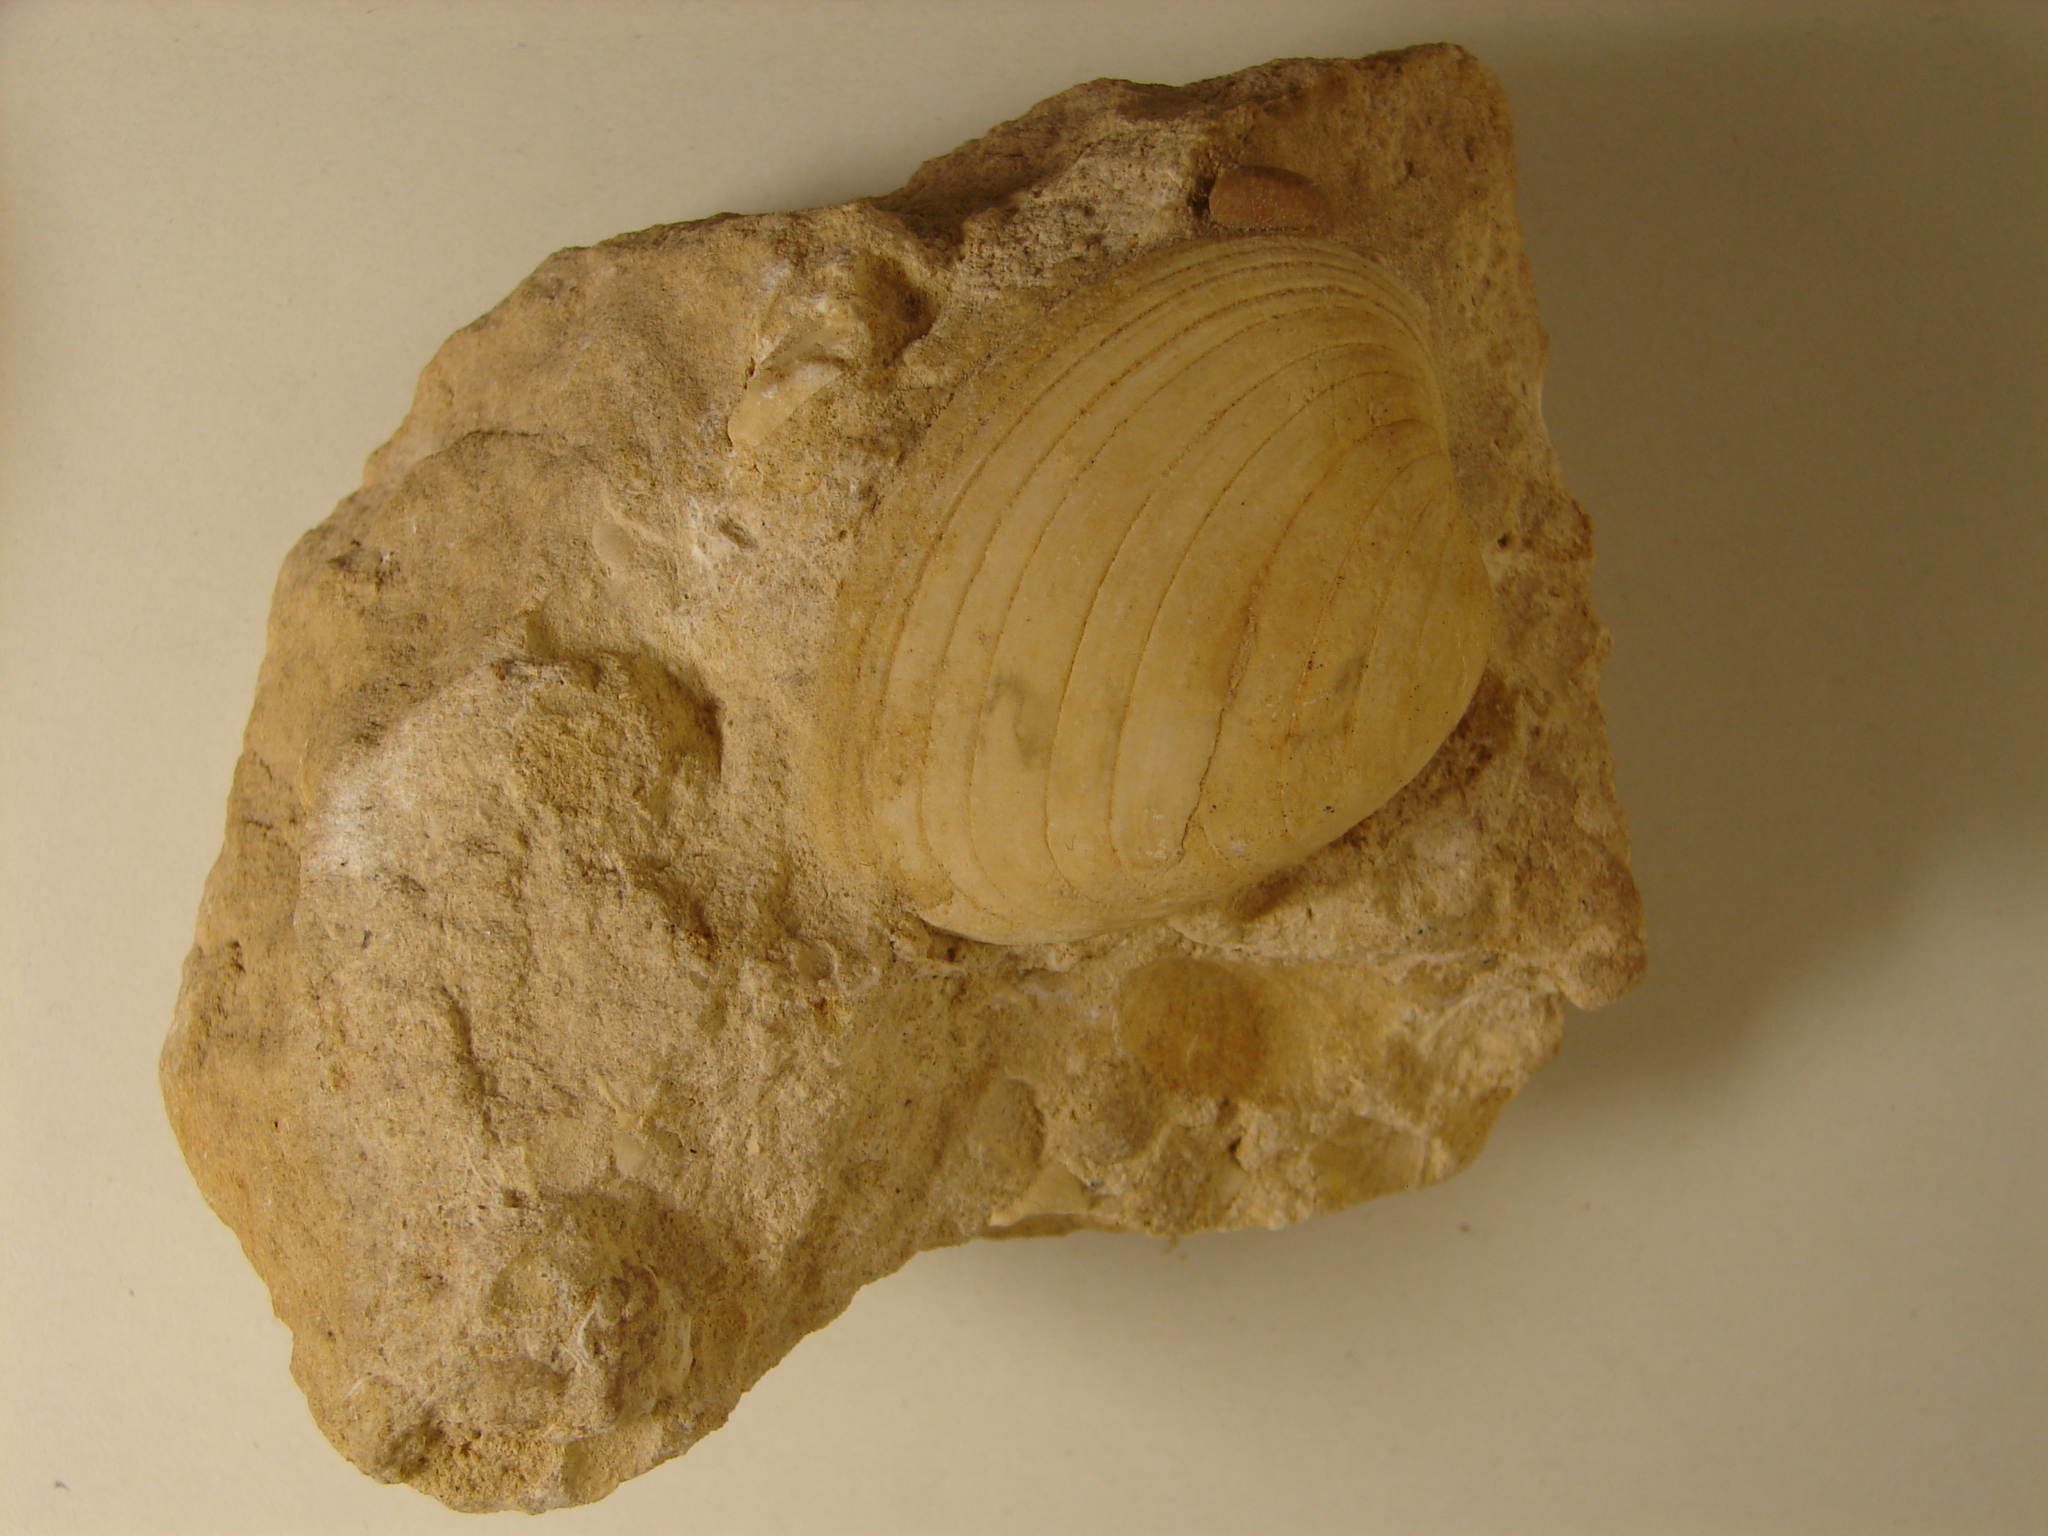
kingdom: Animalia
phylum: Mollusca
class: Bivalvia
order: Carditida
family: Cardiniidae
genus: Cardinia
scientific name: Cardinia
